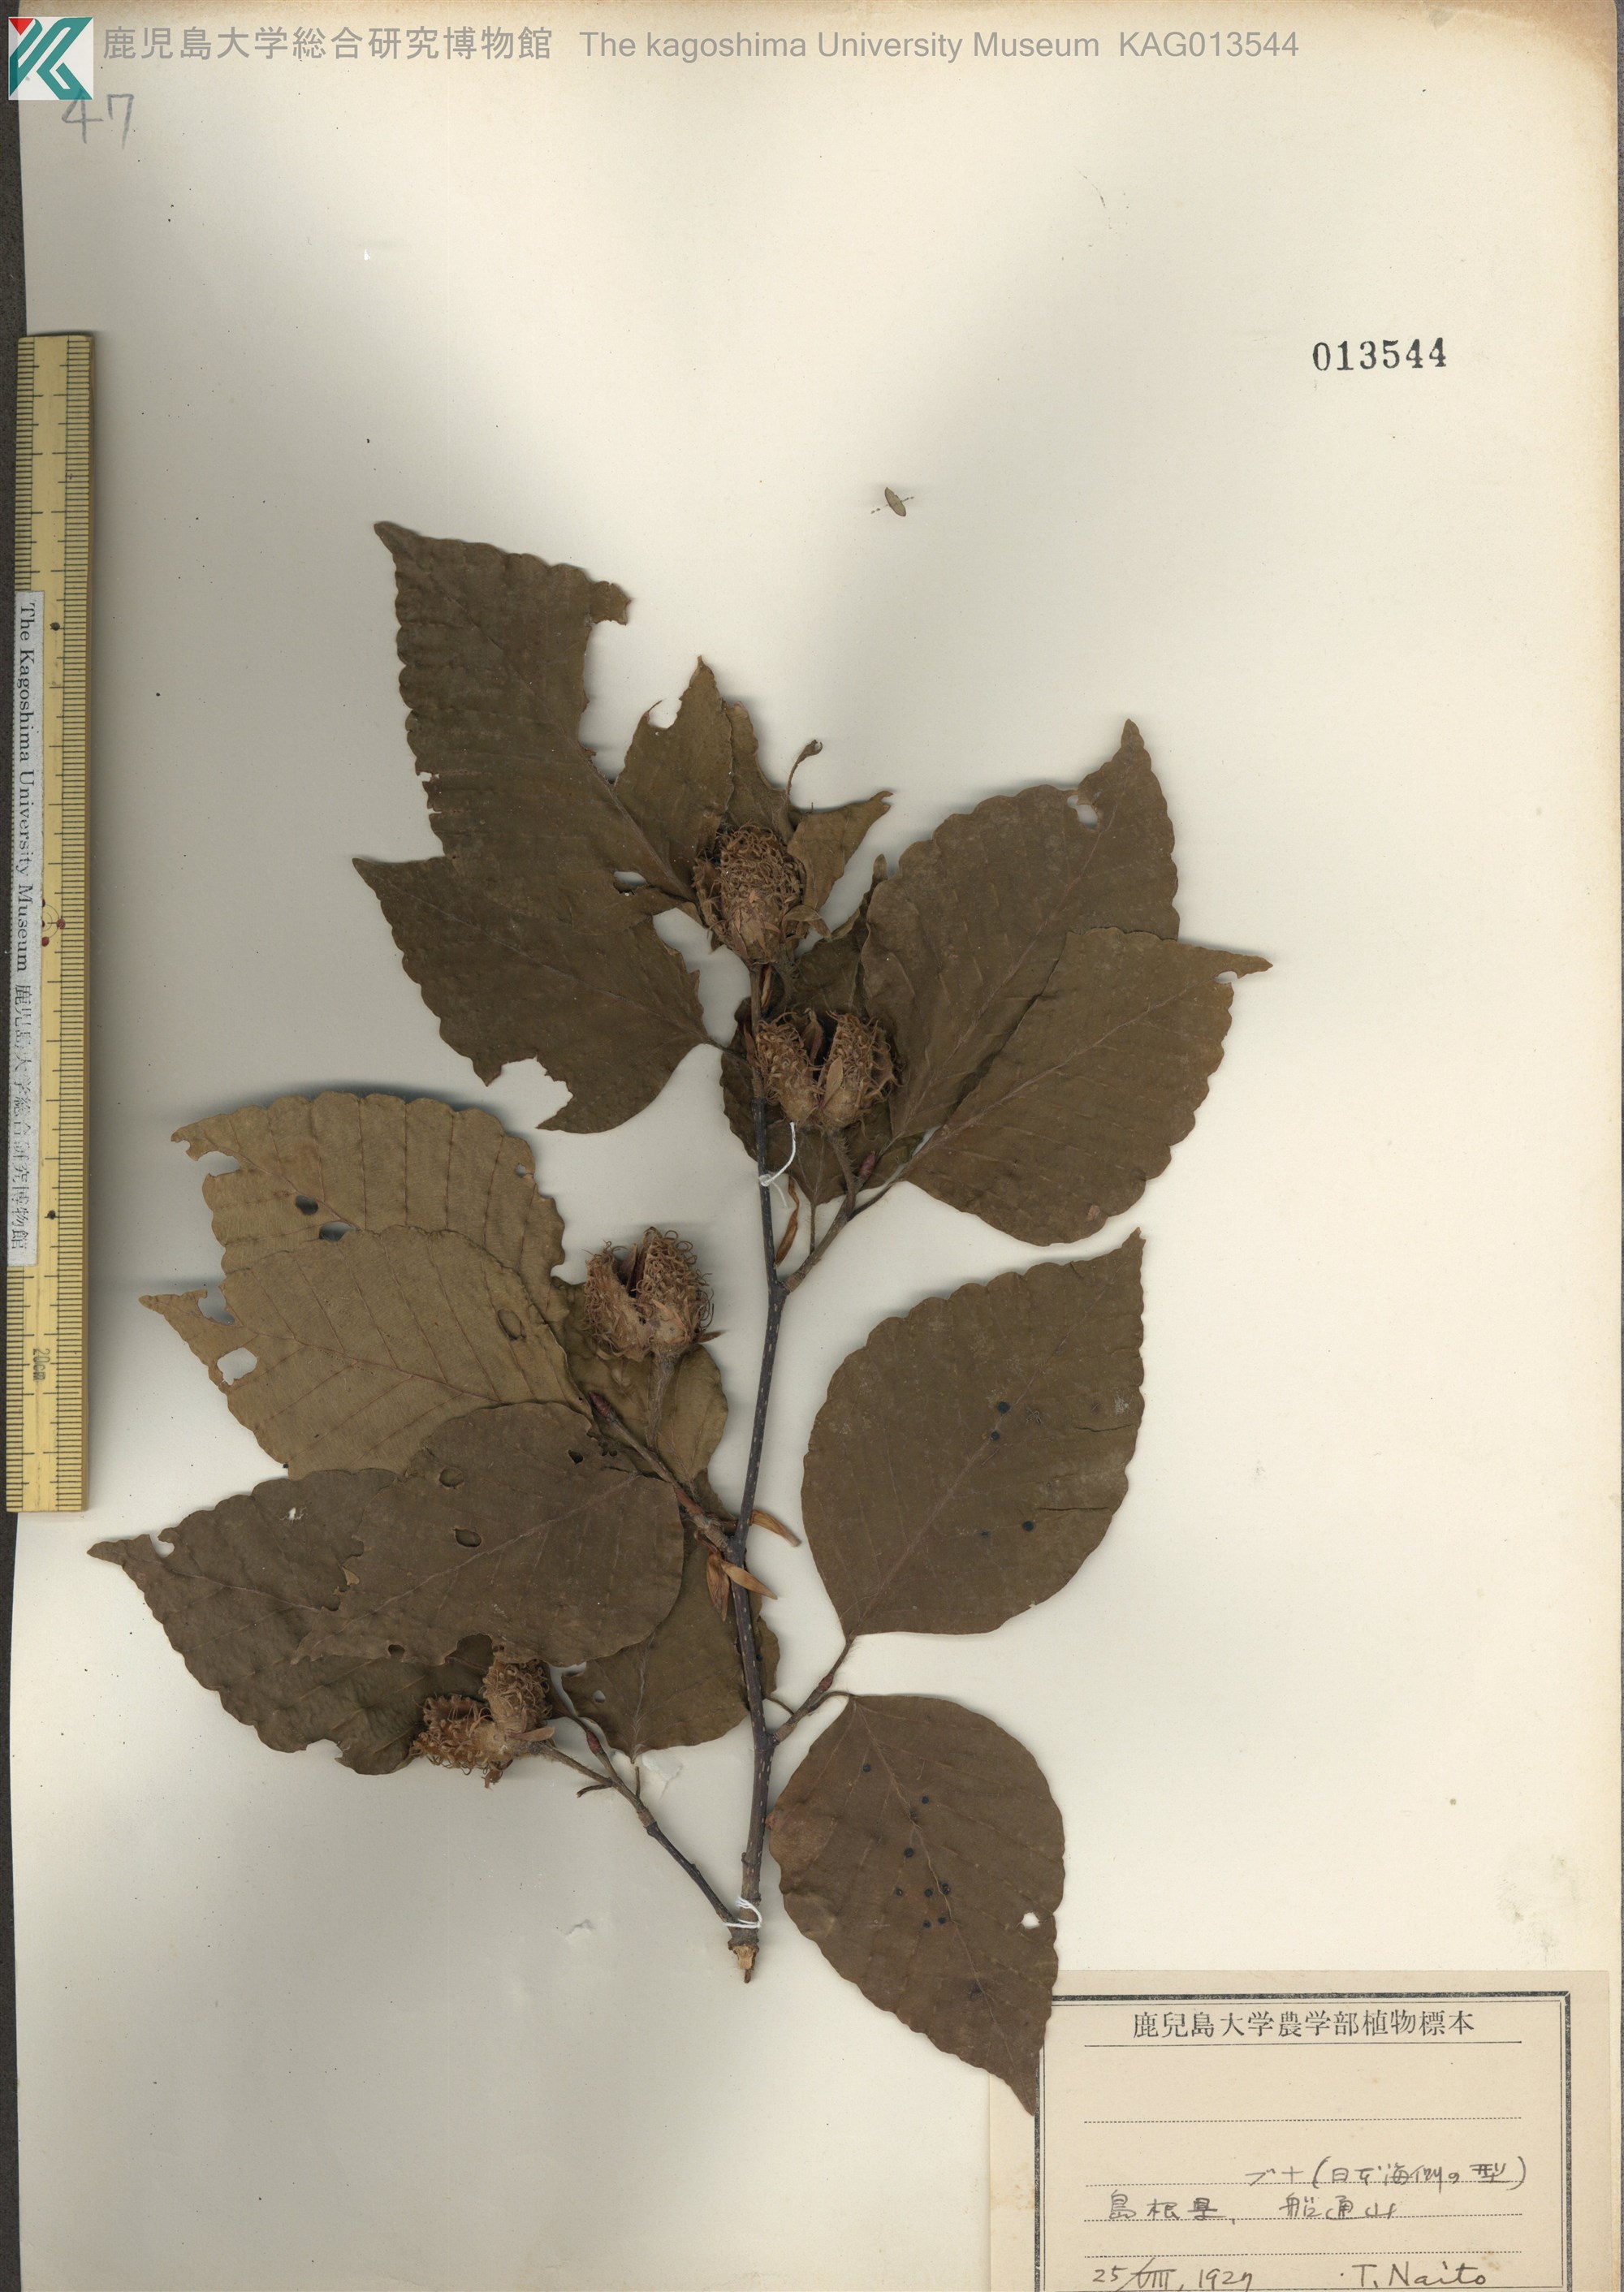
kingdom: Plantae
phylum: Tracheophyta
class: Magnoliopsida
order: Fagales
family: Fagaceae
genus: Fagus
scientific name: Fagus crenata
